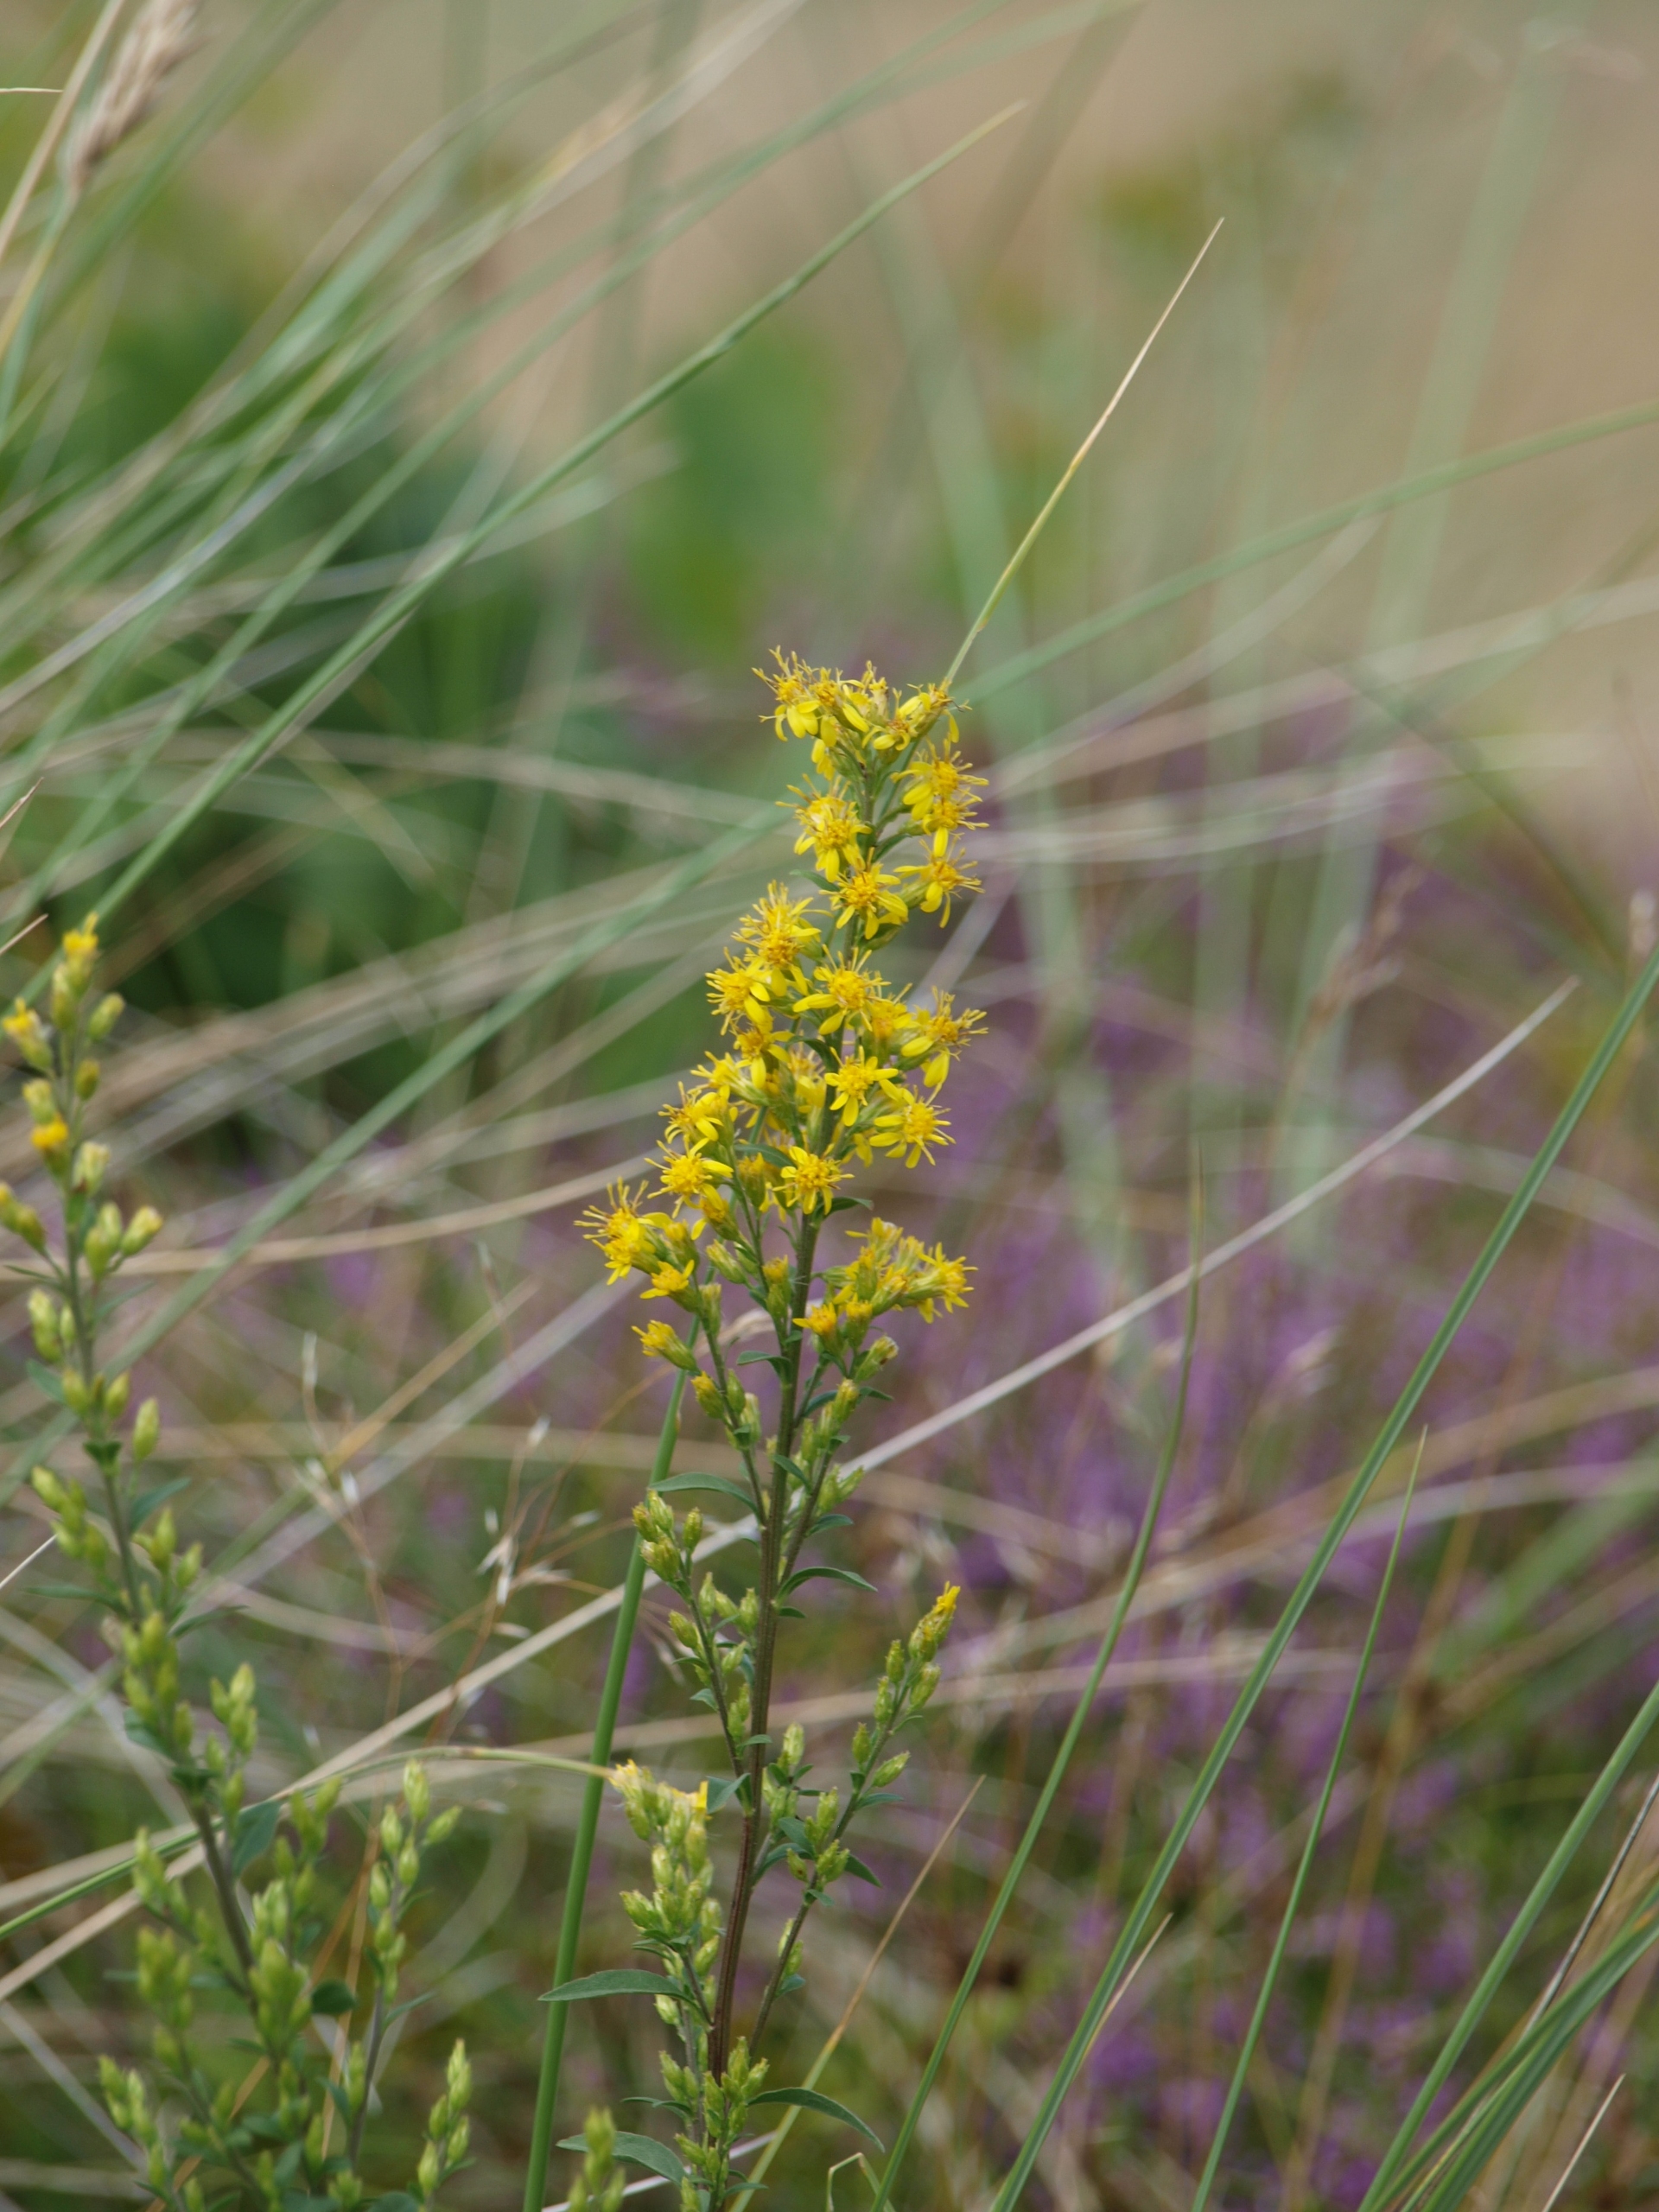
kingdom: Plantae
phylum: Tracheophyta
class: Magnoliopsida
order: Asterales
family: Asteraceae
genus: Solidago
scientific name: Solidago virgaurea
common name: Almindelig gyldenris
